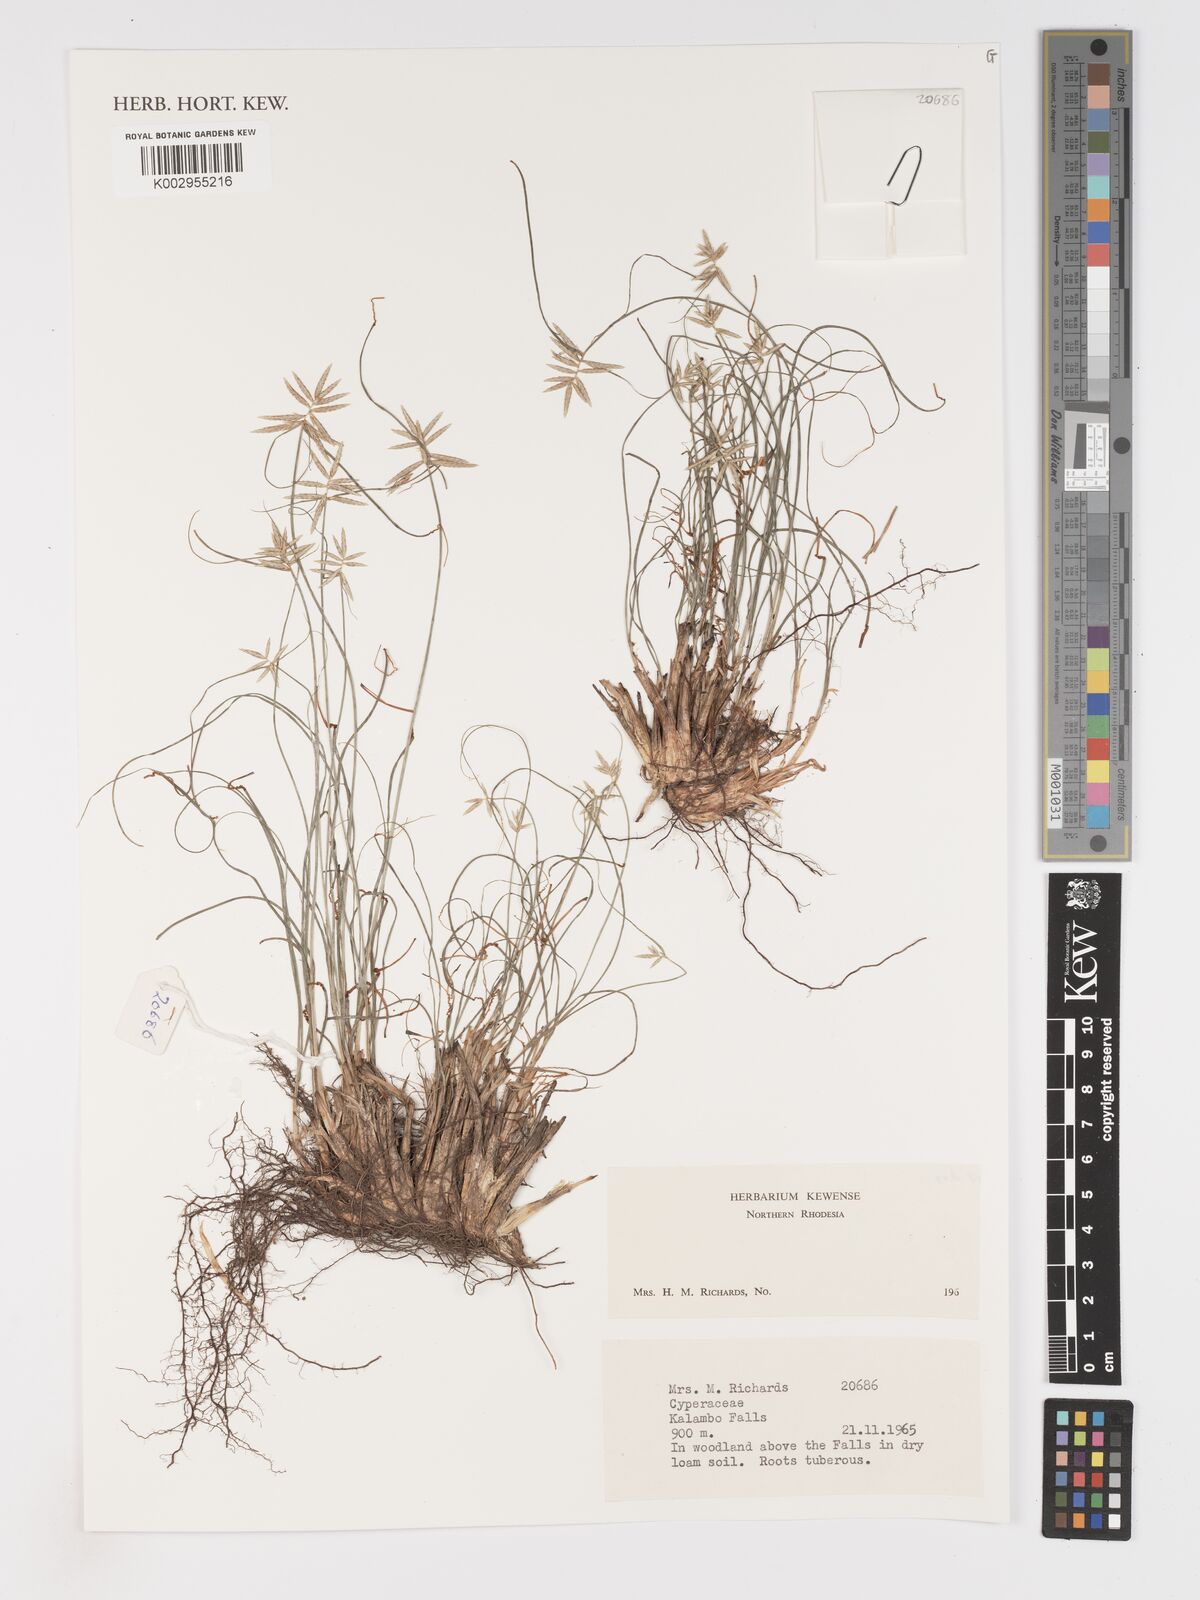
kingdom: Plantae
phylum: Tracheophyta
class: Liliopsida
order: Poales
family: Cyperaceae
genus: Cyperus
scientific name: Cyperus
